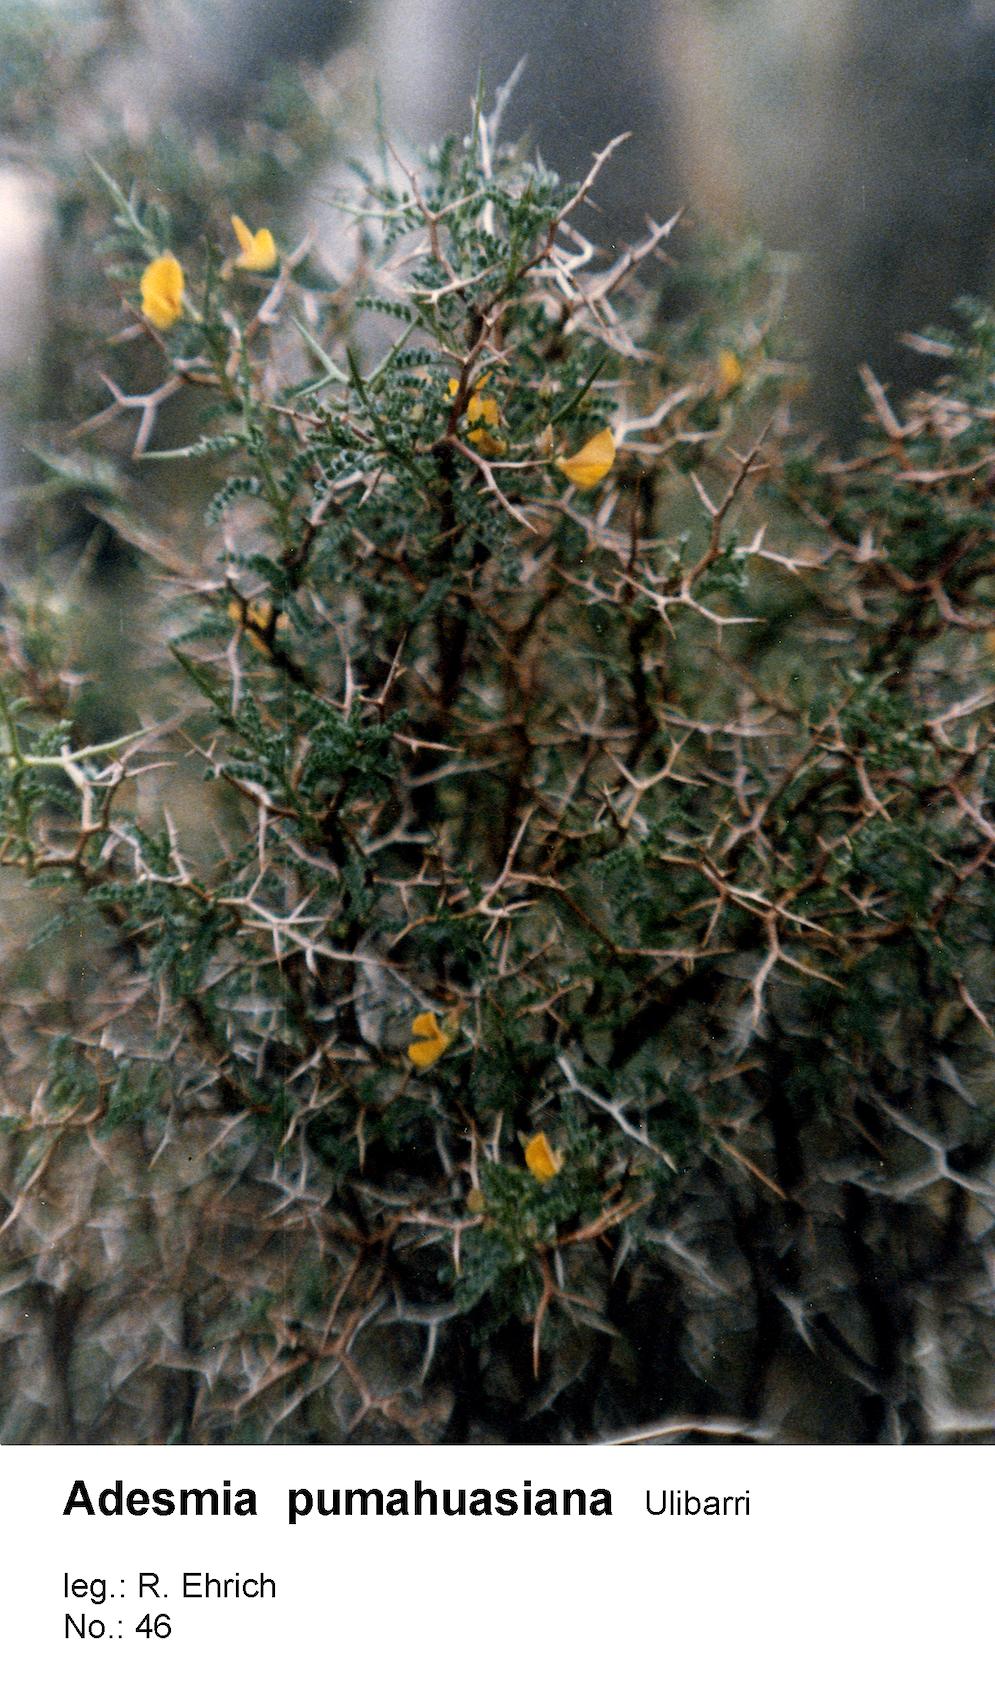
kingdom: Plantae
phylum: Tracheophyta
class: Magnoliopsida
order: Fabales
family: Fabaceae
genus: Adesmia
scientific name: Adesmia pumahuasiana
